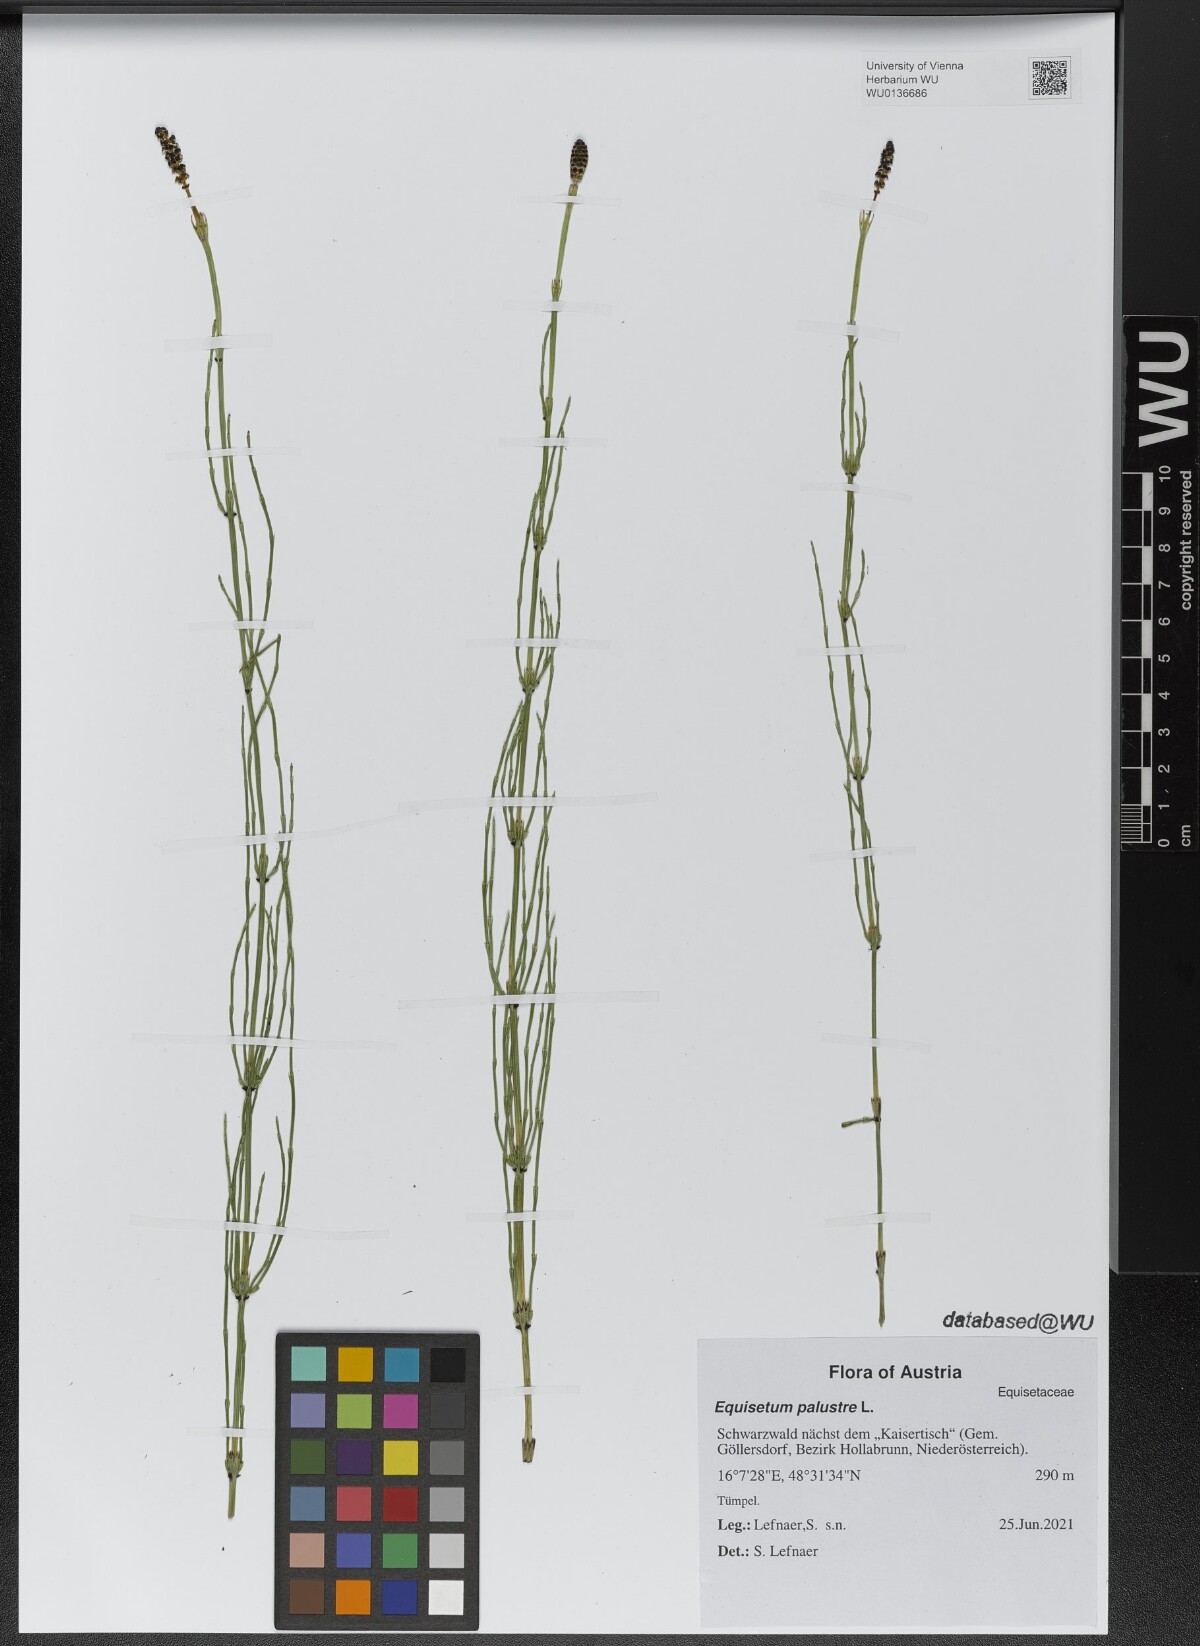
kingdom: Plantae
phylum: Tracheophyta
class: Polypodiopsida
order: Equisetales
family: Equisetaceae
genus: Equisetum
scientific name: Equisetum palustre
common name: Marsh horsetail
